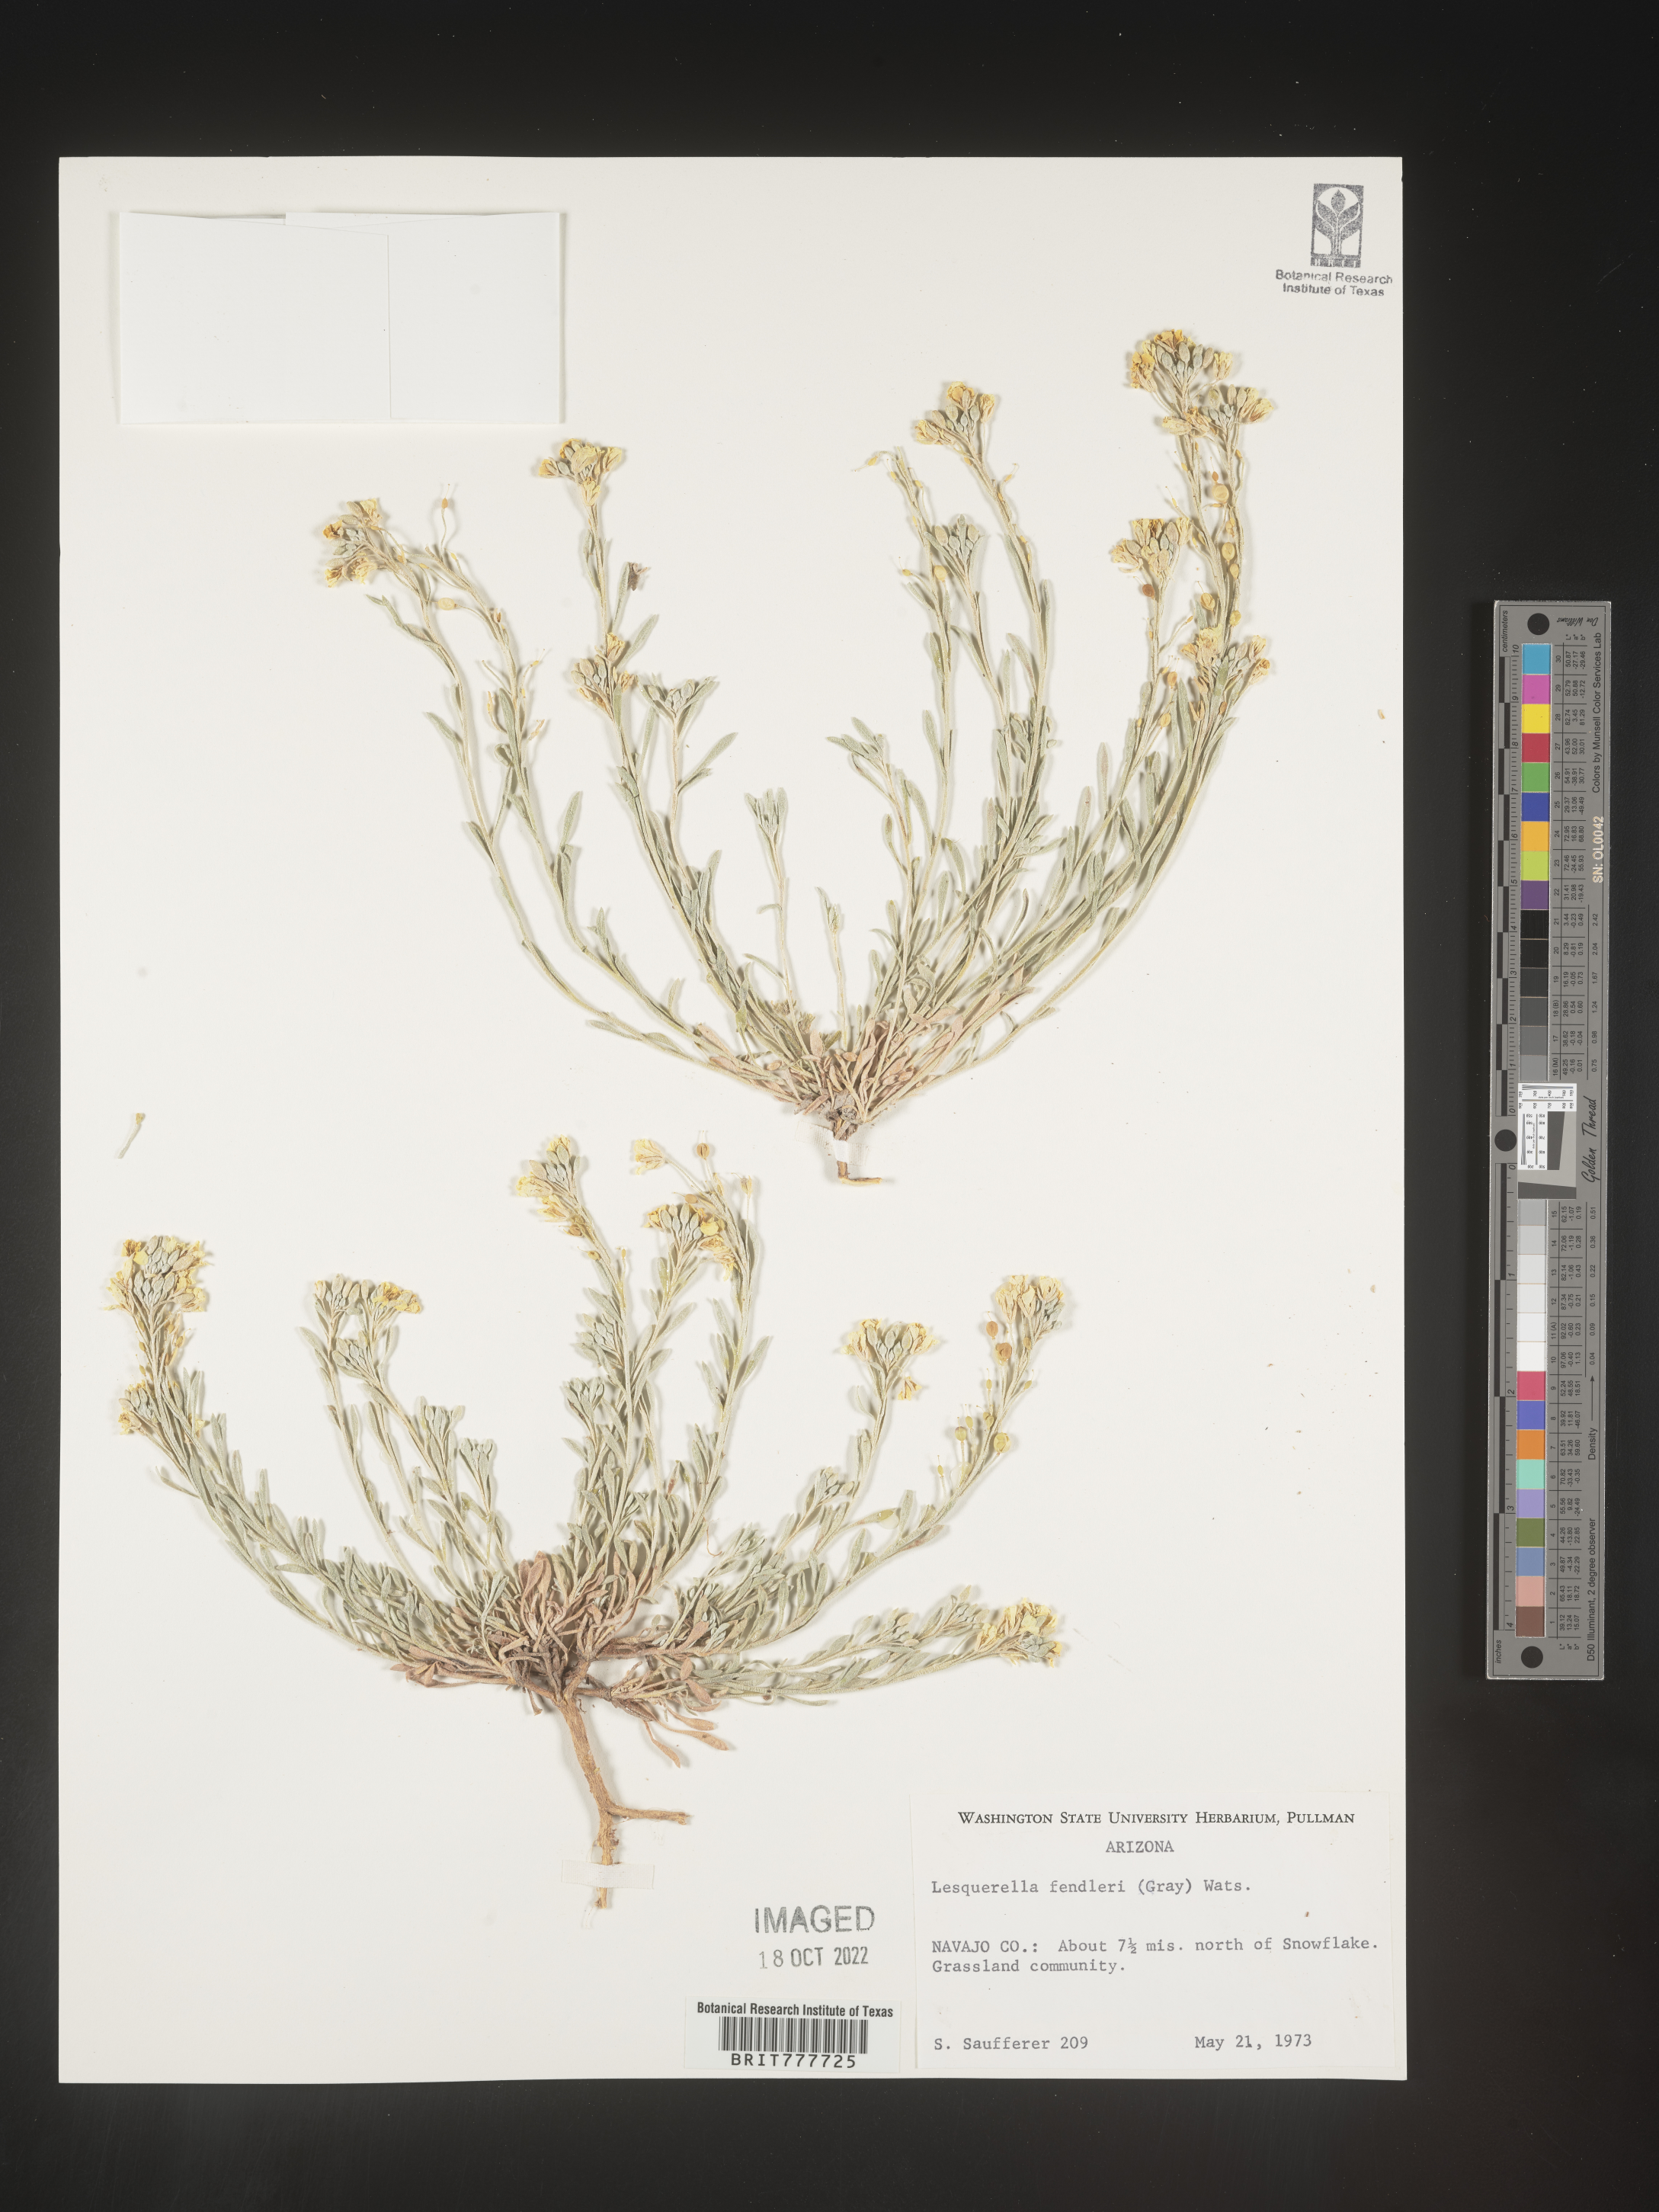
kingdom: Plantae
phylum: Tracheophyta
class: Magnoliopsida
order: Brassicales
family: Brassicaceae
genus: Physaria
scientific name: Physaria fendleri
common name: Fendler's bladderpod
